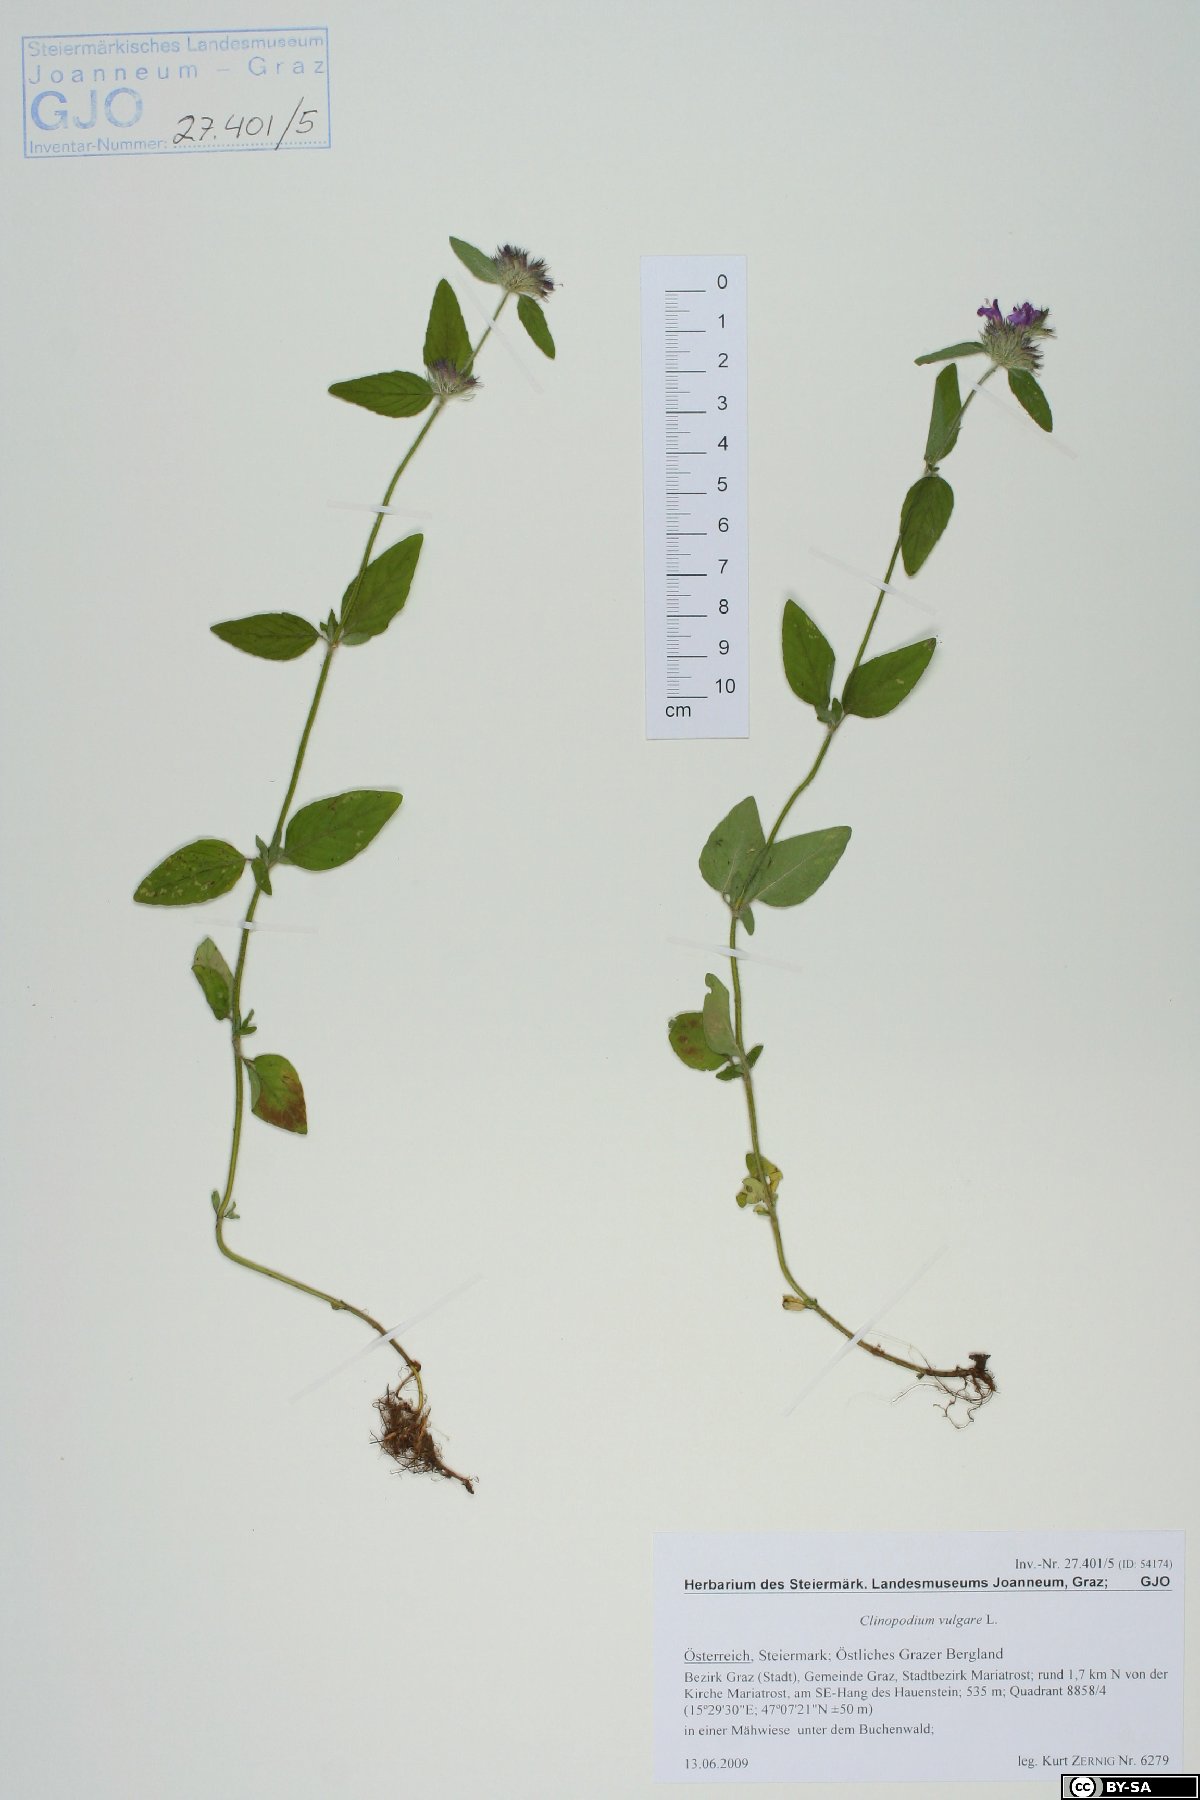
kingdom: Plantae
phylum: Tracheophyta
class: Magnoliopsida
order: Lamiales
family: Lamiaceae
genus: Clinopodium
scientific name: Clinopodium vulgare
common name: Wild basil
